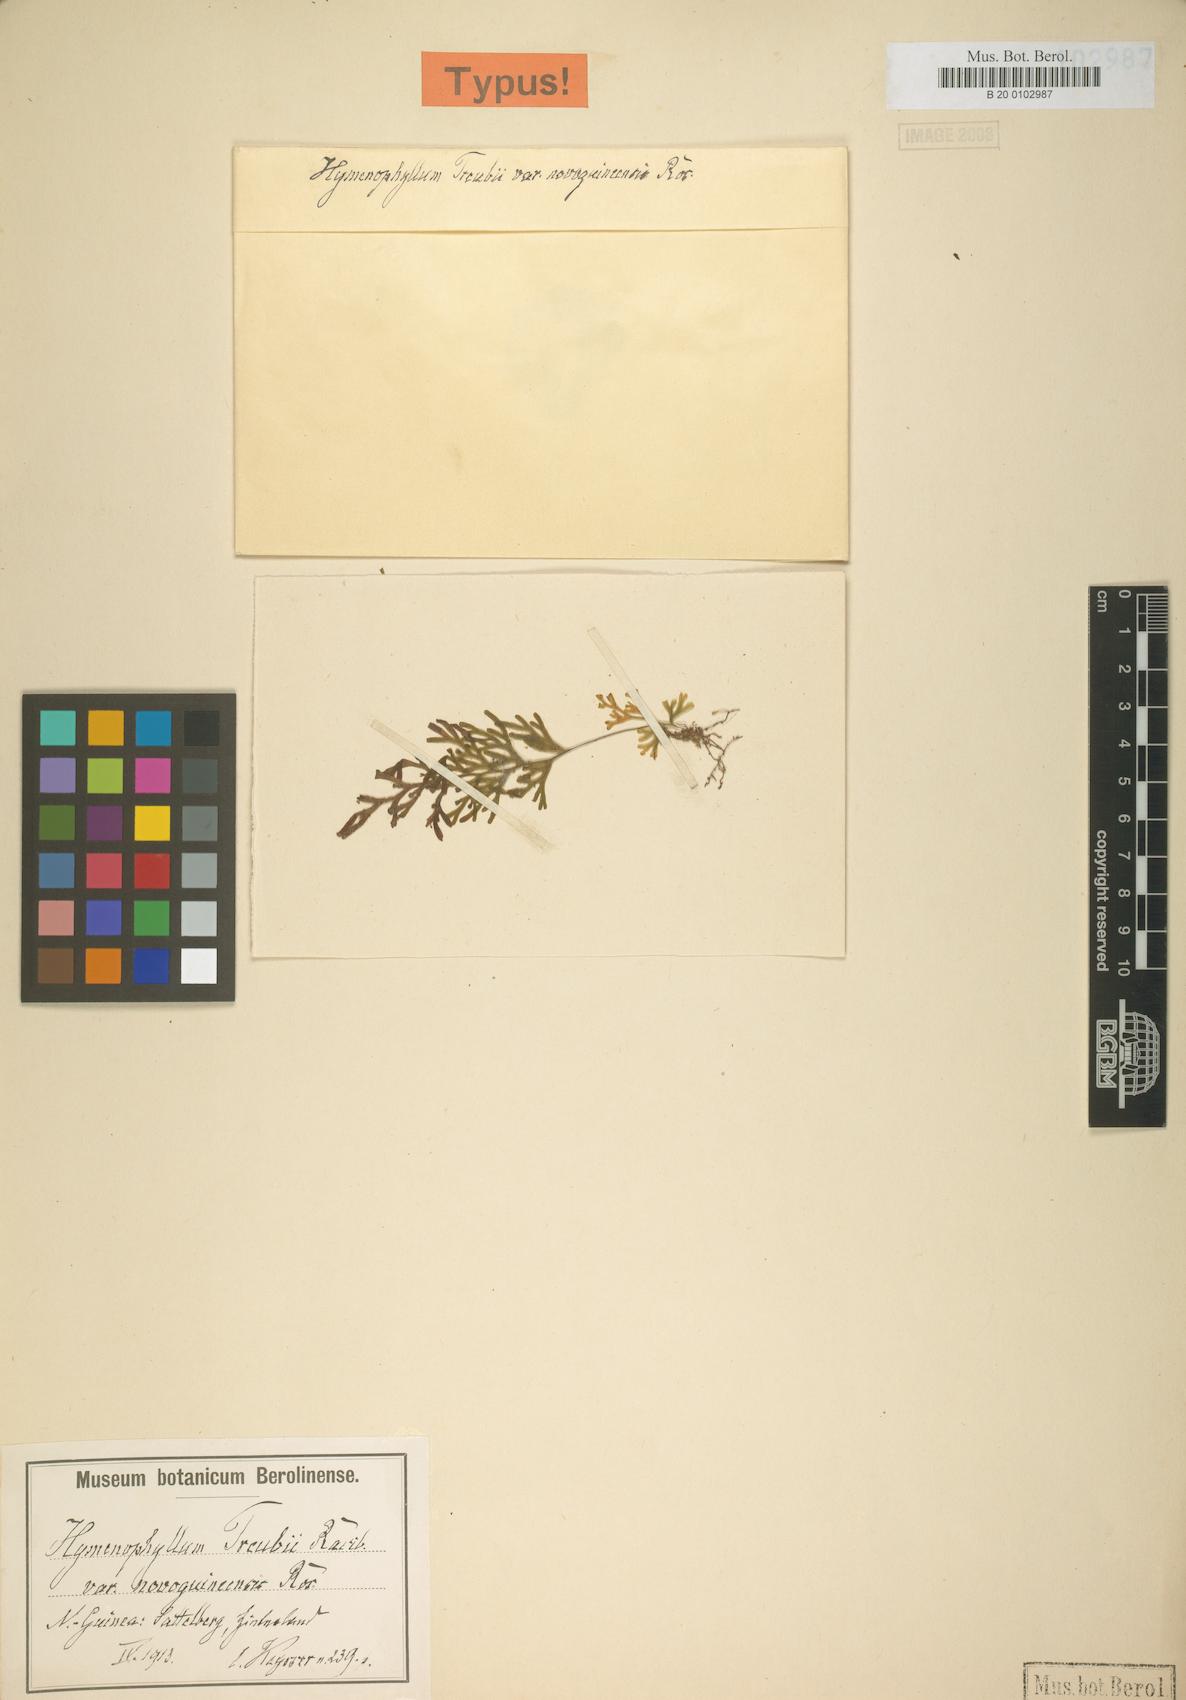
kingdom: Plantae
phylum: Tracheophyta
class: Polypodiopsida
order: Hymenophyllales
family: Hymenophyllaceae
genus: Hymenophyllum
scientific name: Hymenophyllum angulosum
